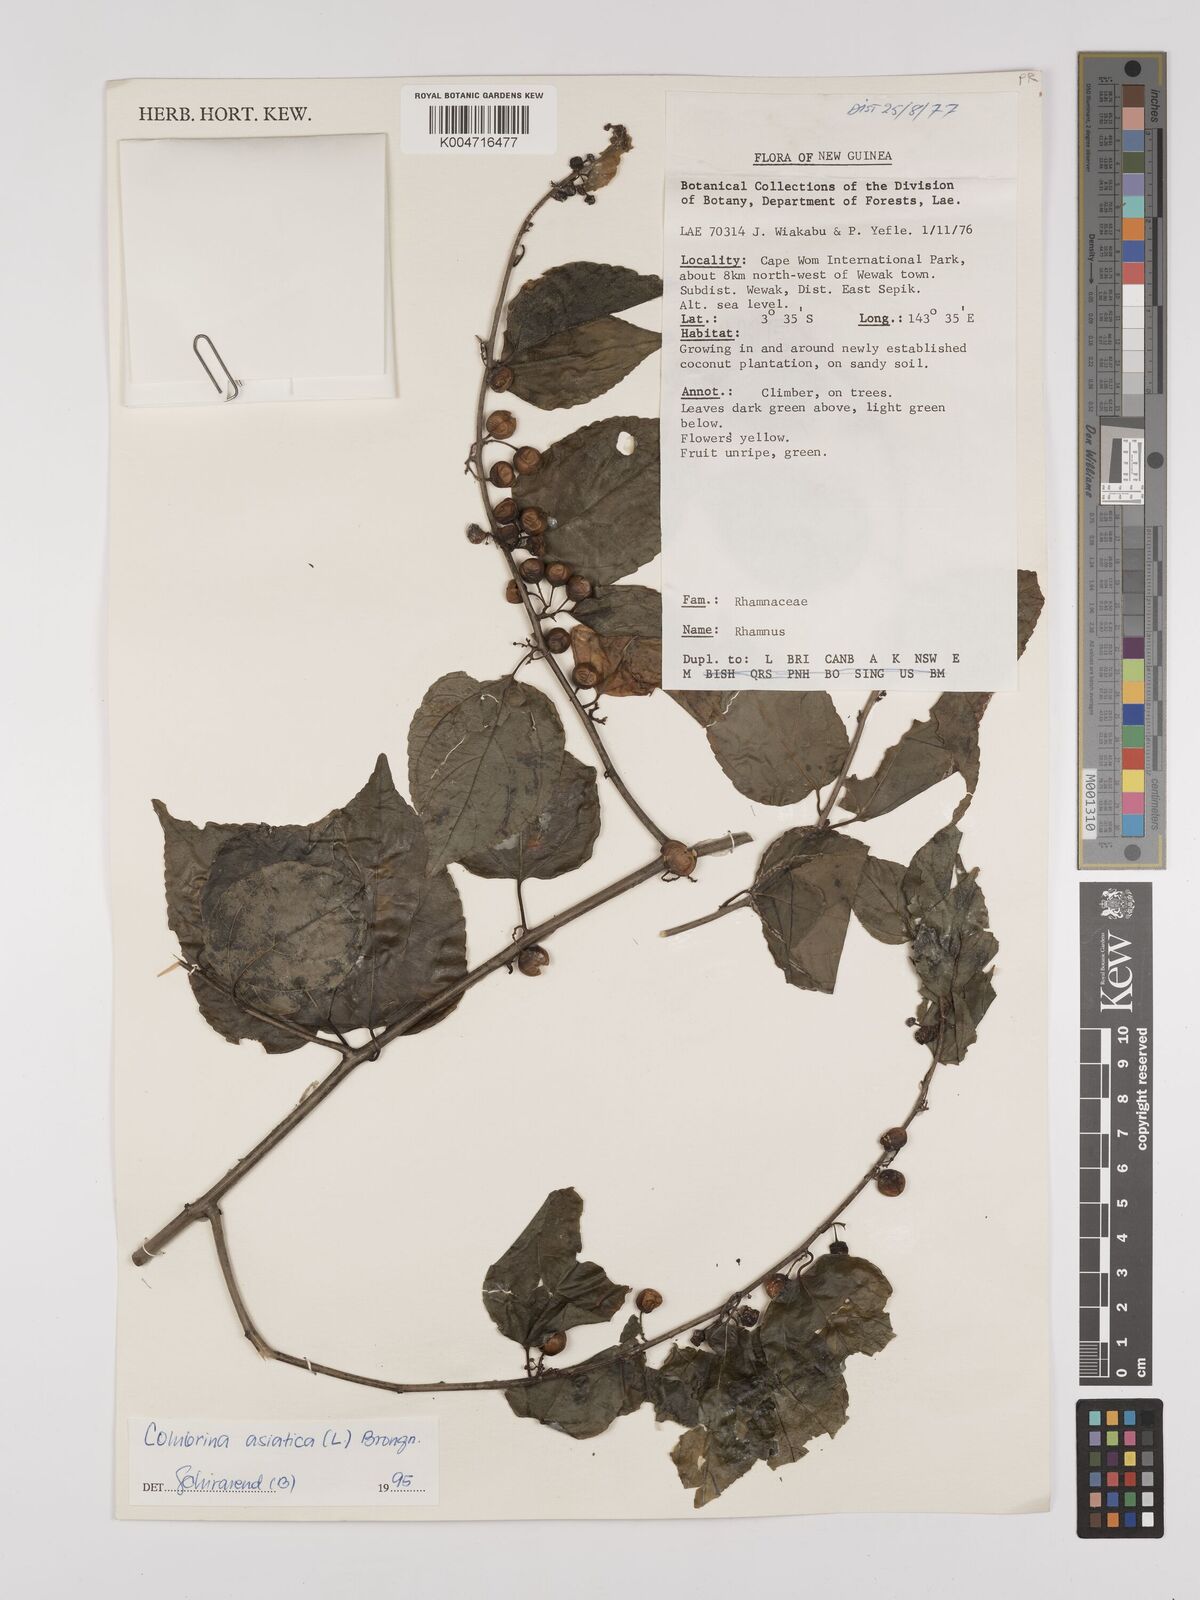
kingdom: Plantae
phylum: Tracheophyta
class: Magnoliopsida
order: Rosales
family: Rhamnaceae
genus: Colubrina
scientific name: Colubrina asiatica
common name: Asian nakedwood
